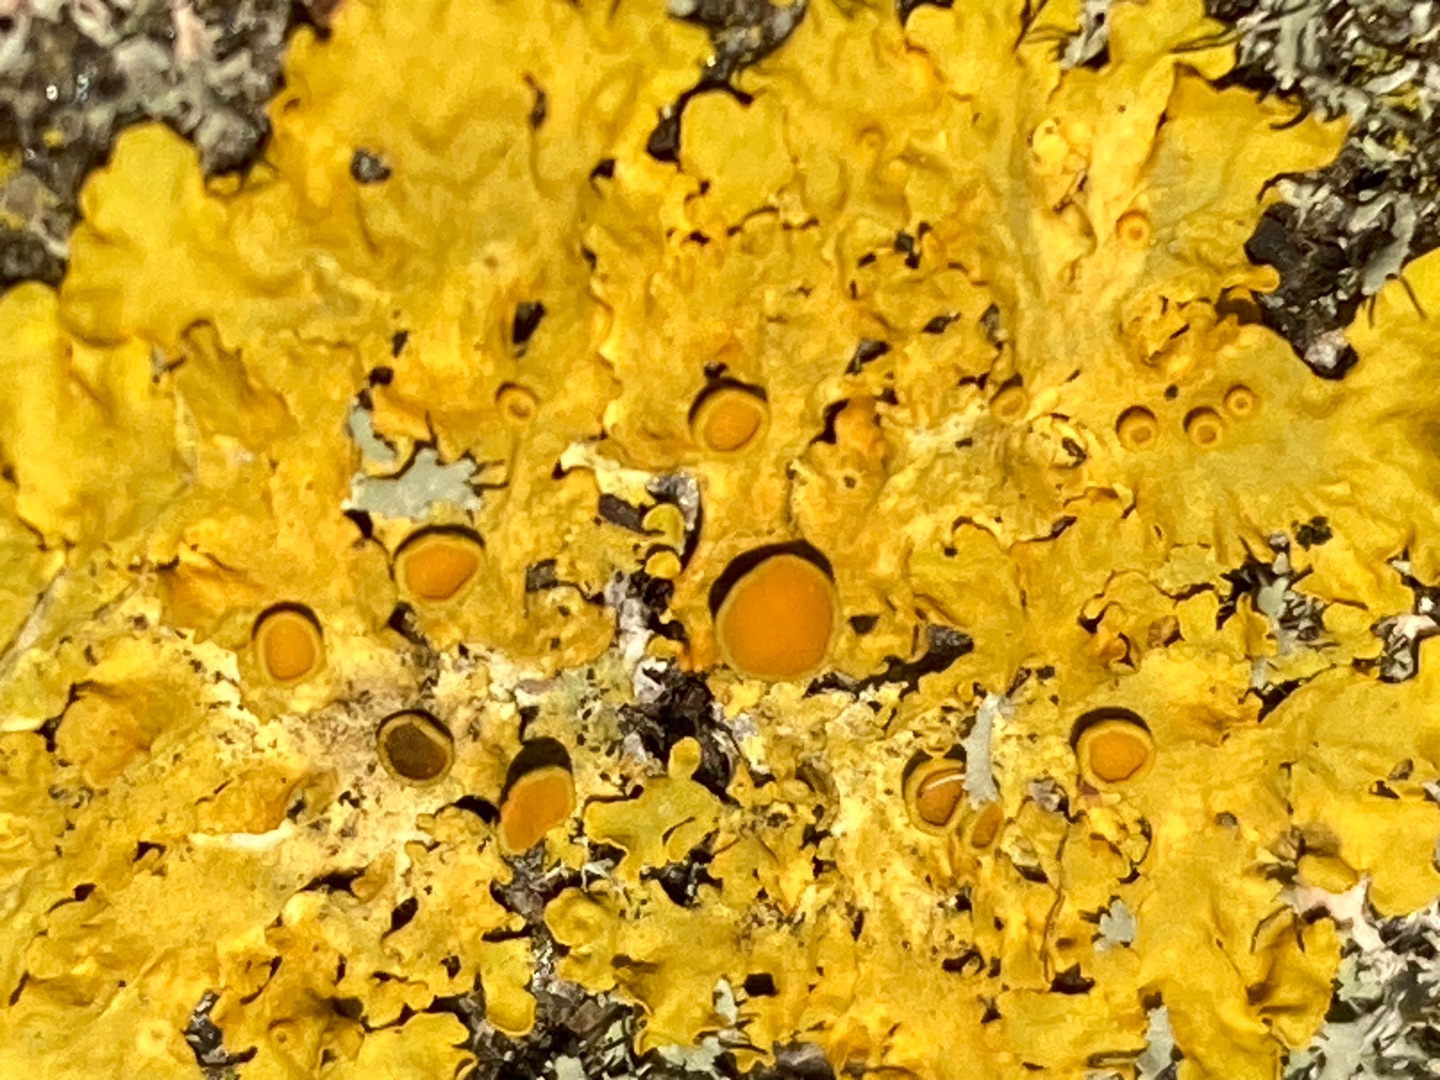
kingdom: Fungi
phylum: Ascomycota
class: Lecanoromycetes
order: Teloschistales
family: Teloschistaceae
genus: Xanthoria
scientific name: Xanthoria parietina
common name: Almindelig væggelav
